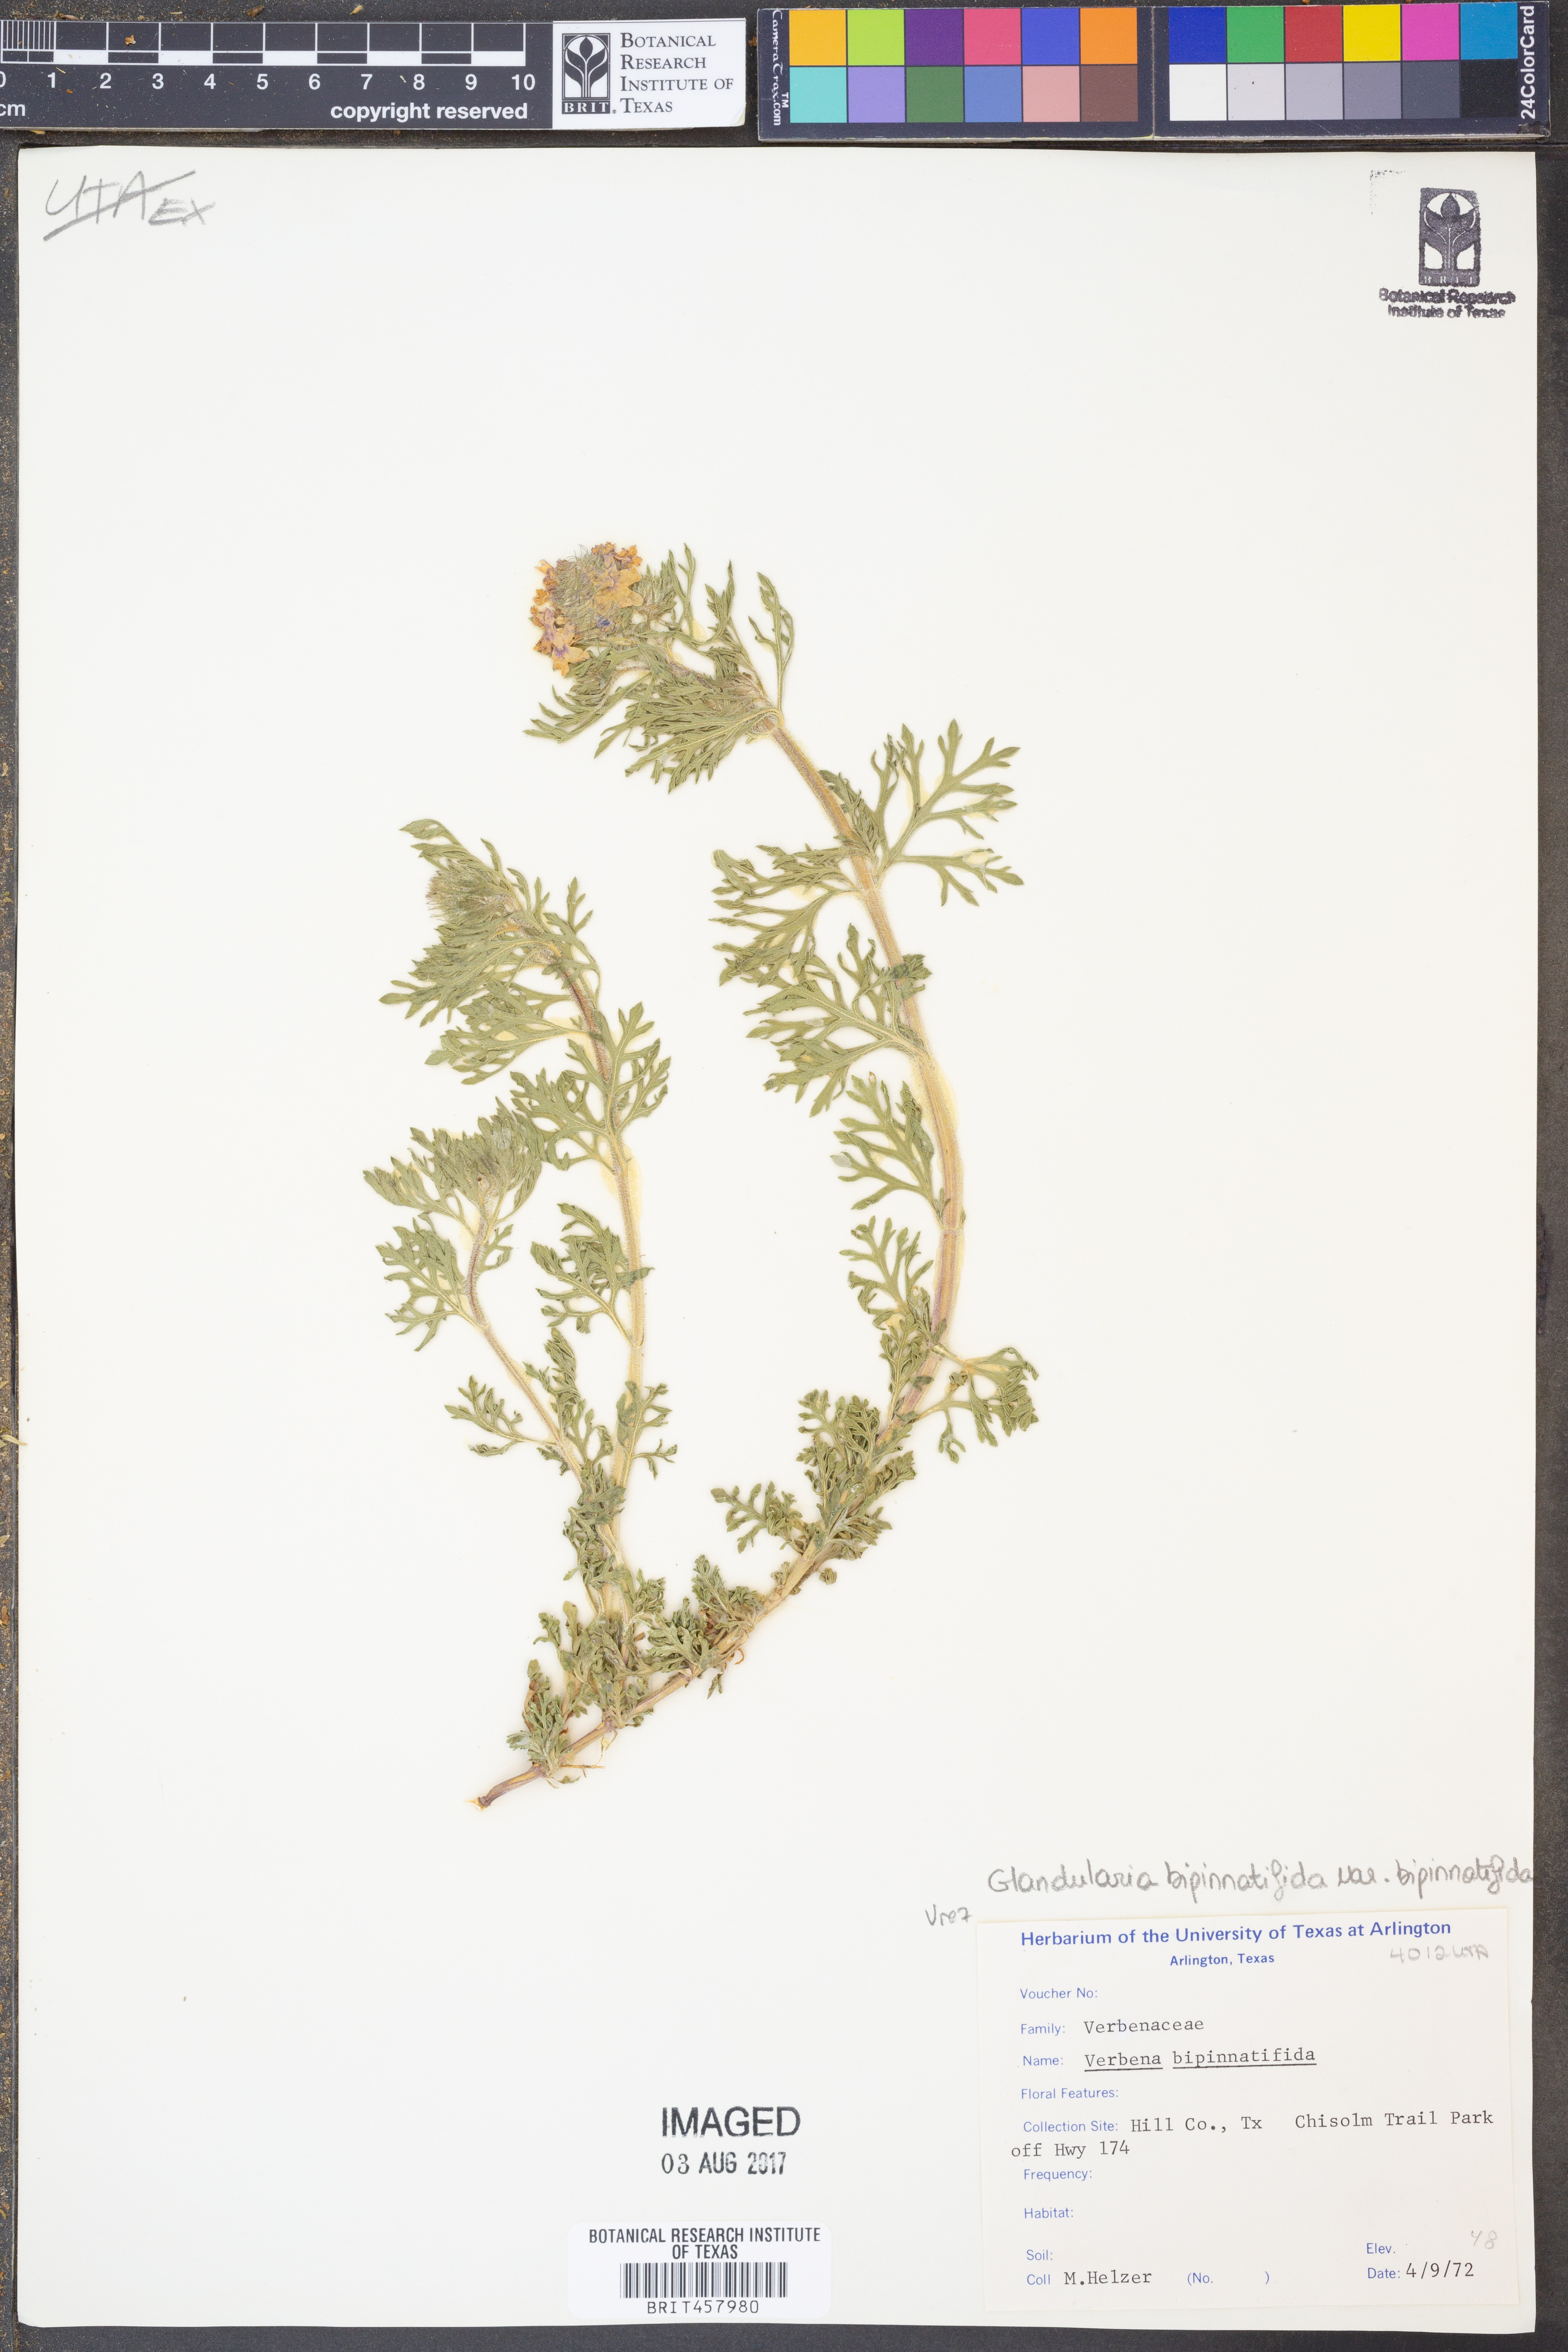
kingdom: Plantae
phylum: Tracheophyta
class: Magnoliopsida
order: Lamiales
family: Verbenaceae
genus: Verbena
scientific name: Verbena bipinnatifida
